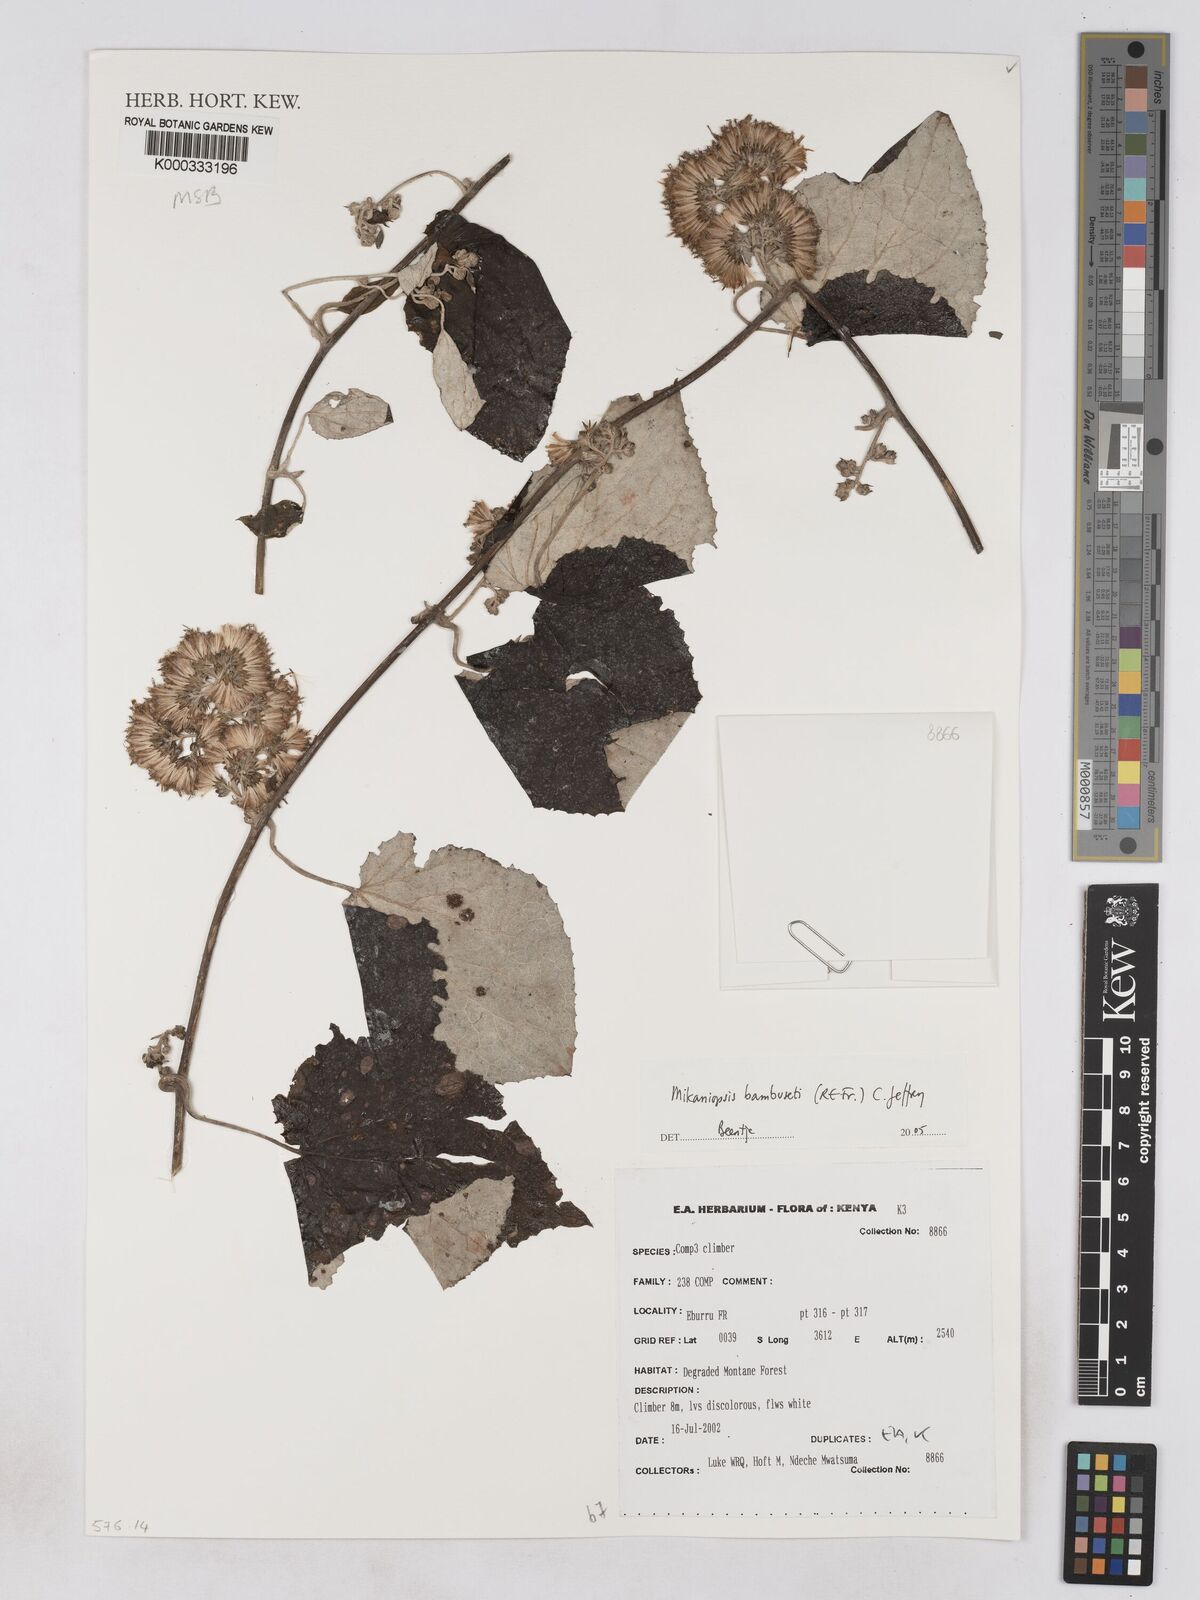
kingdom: Plantae
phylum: Tracheophyta
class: Magnoliopsida
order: Asterales
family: Asteraceae
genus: Mikaniopsis
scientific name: Mikaniopsis bambuseti
